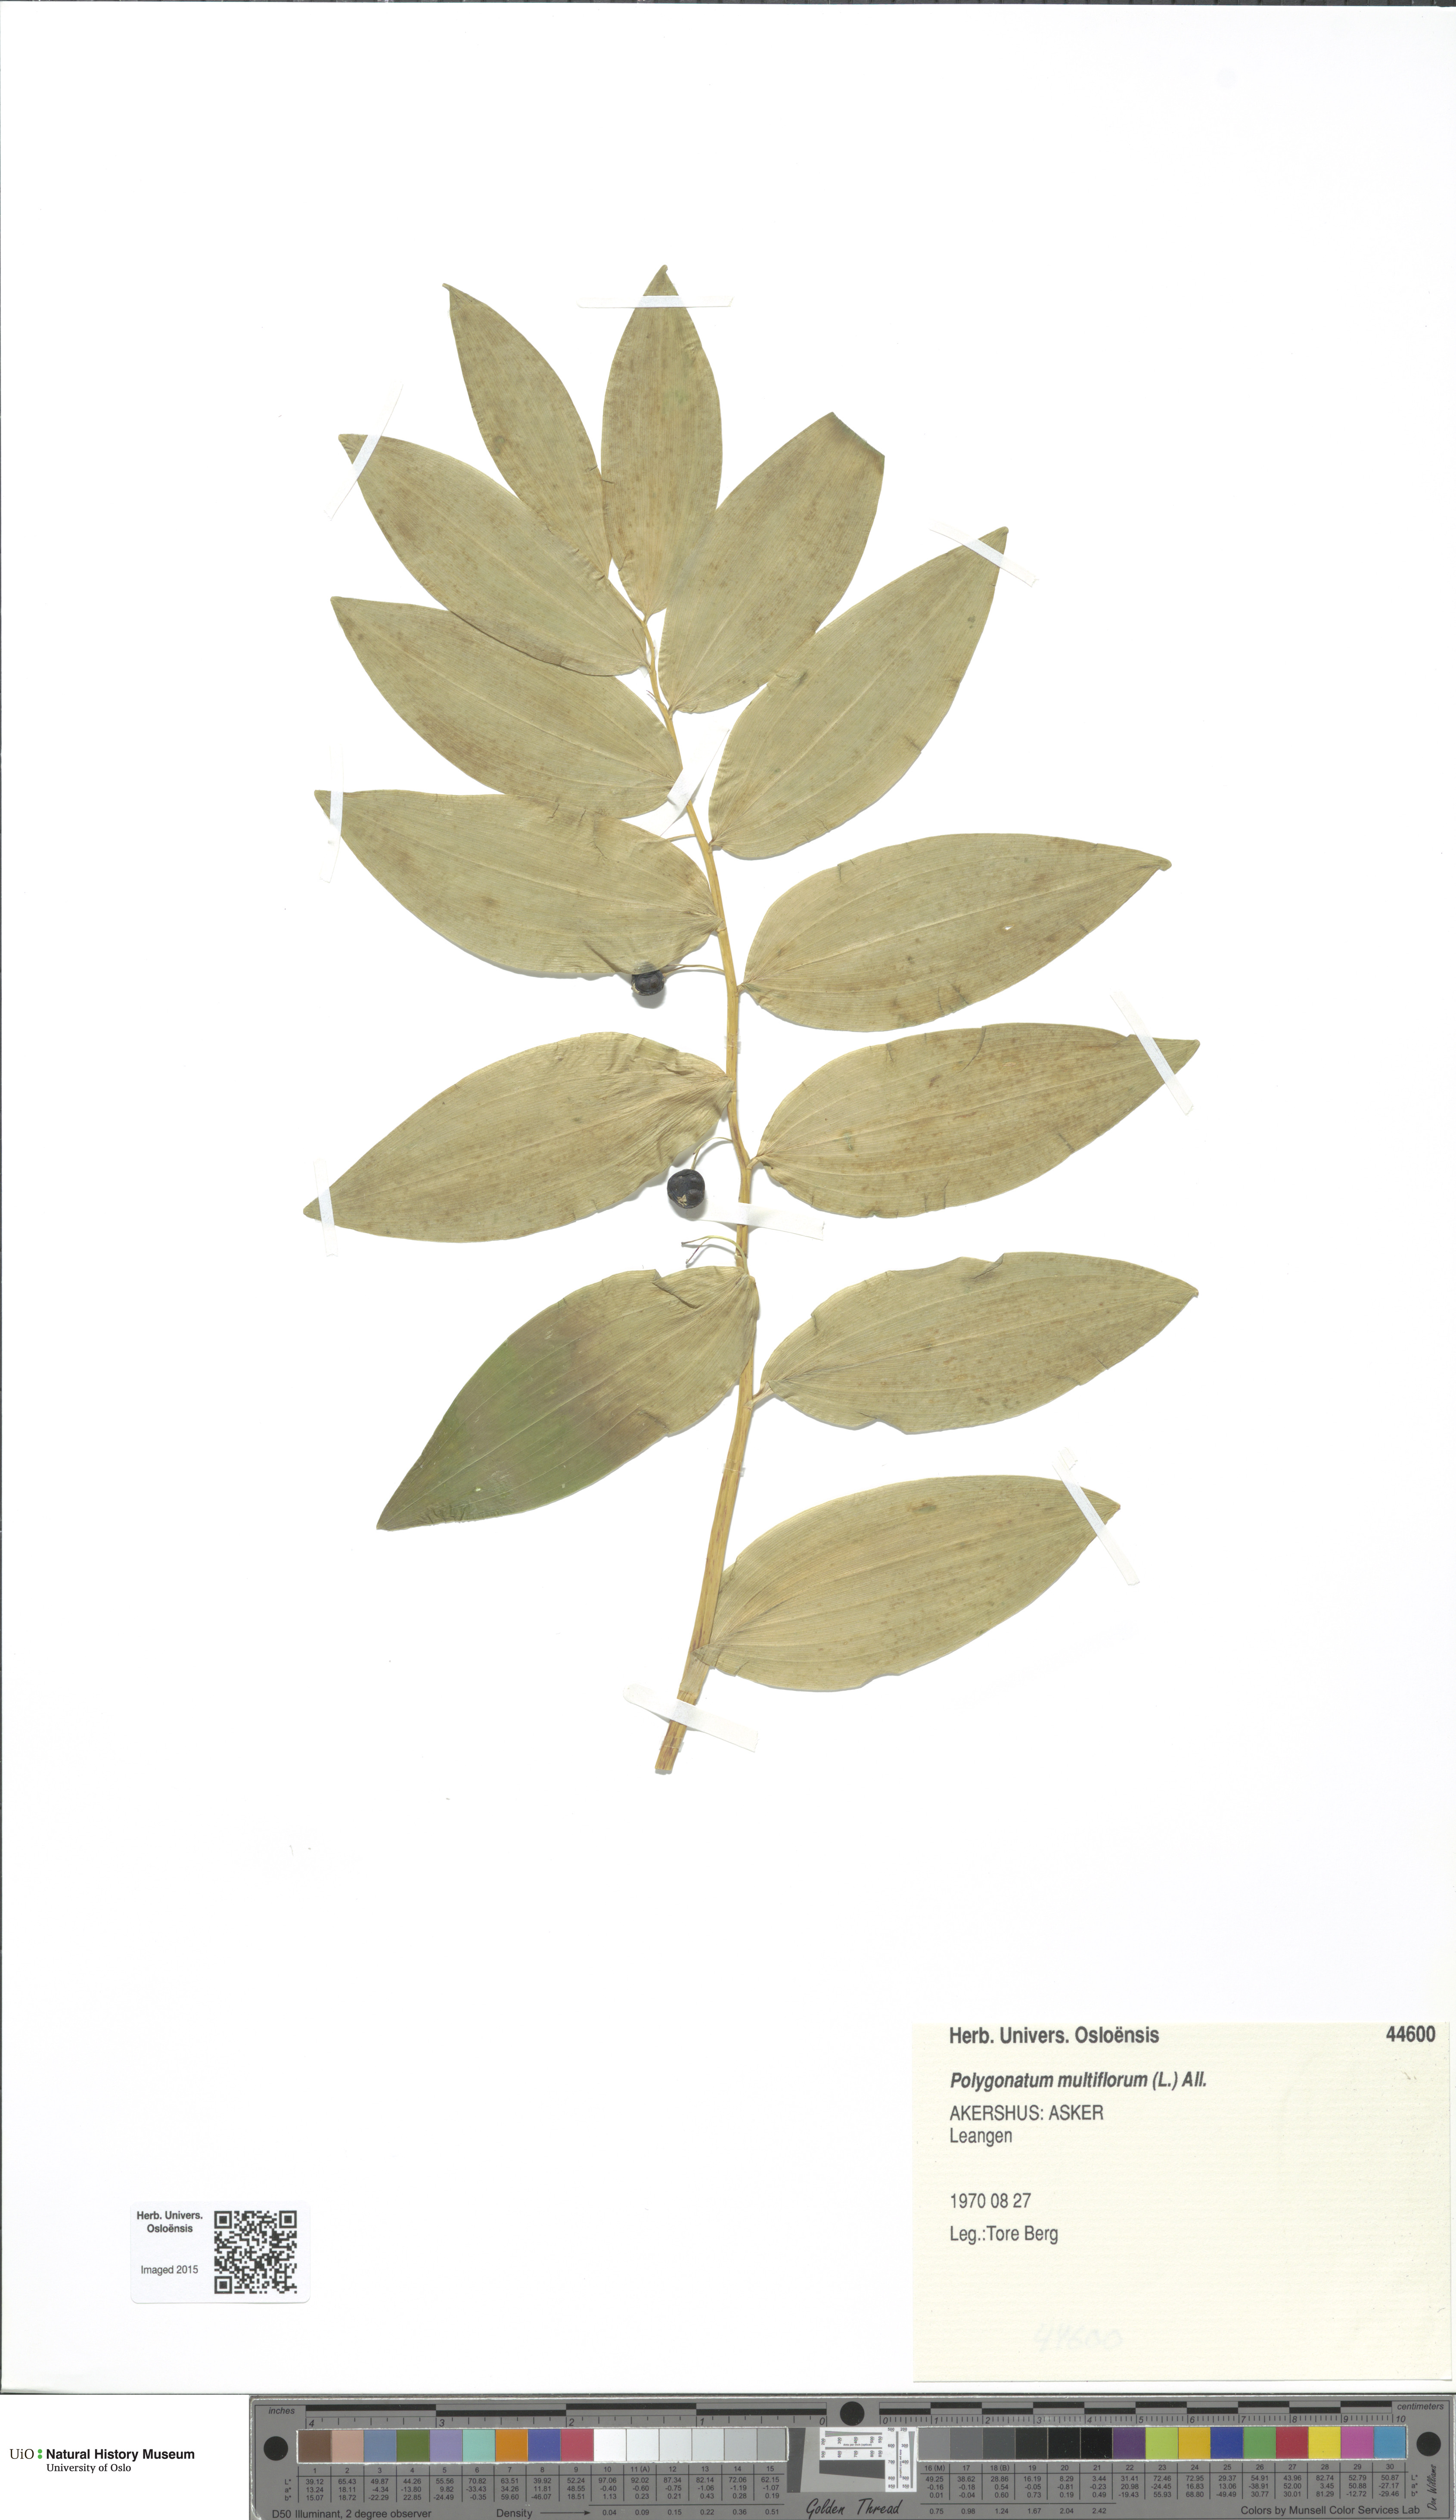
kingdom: Plantae
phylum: Tracheophyta
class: Liliopsida
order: Asparagales
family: Asparagaceae
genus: Polygonatum
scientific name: Polygonatum multiflorum
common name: Solomon's-seal
